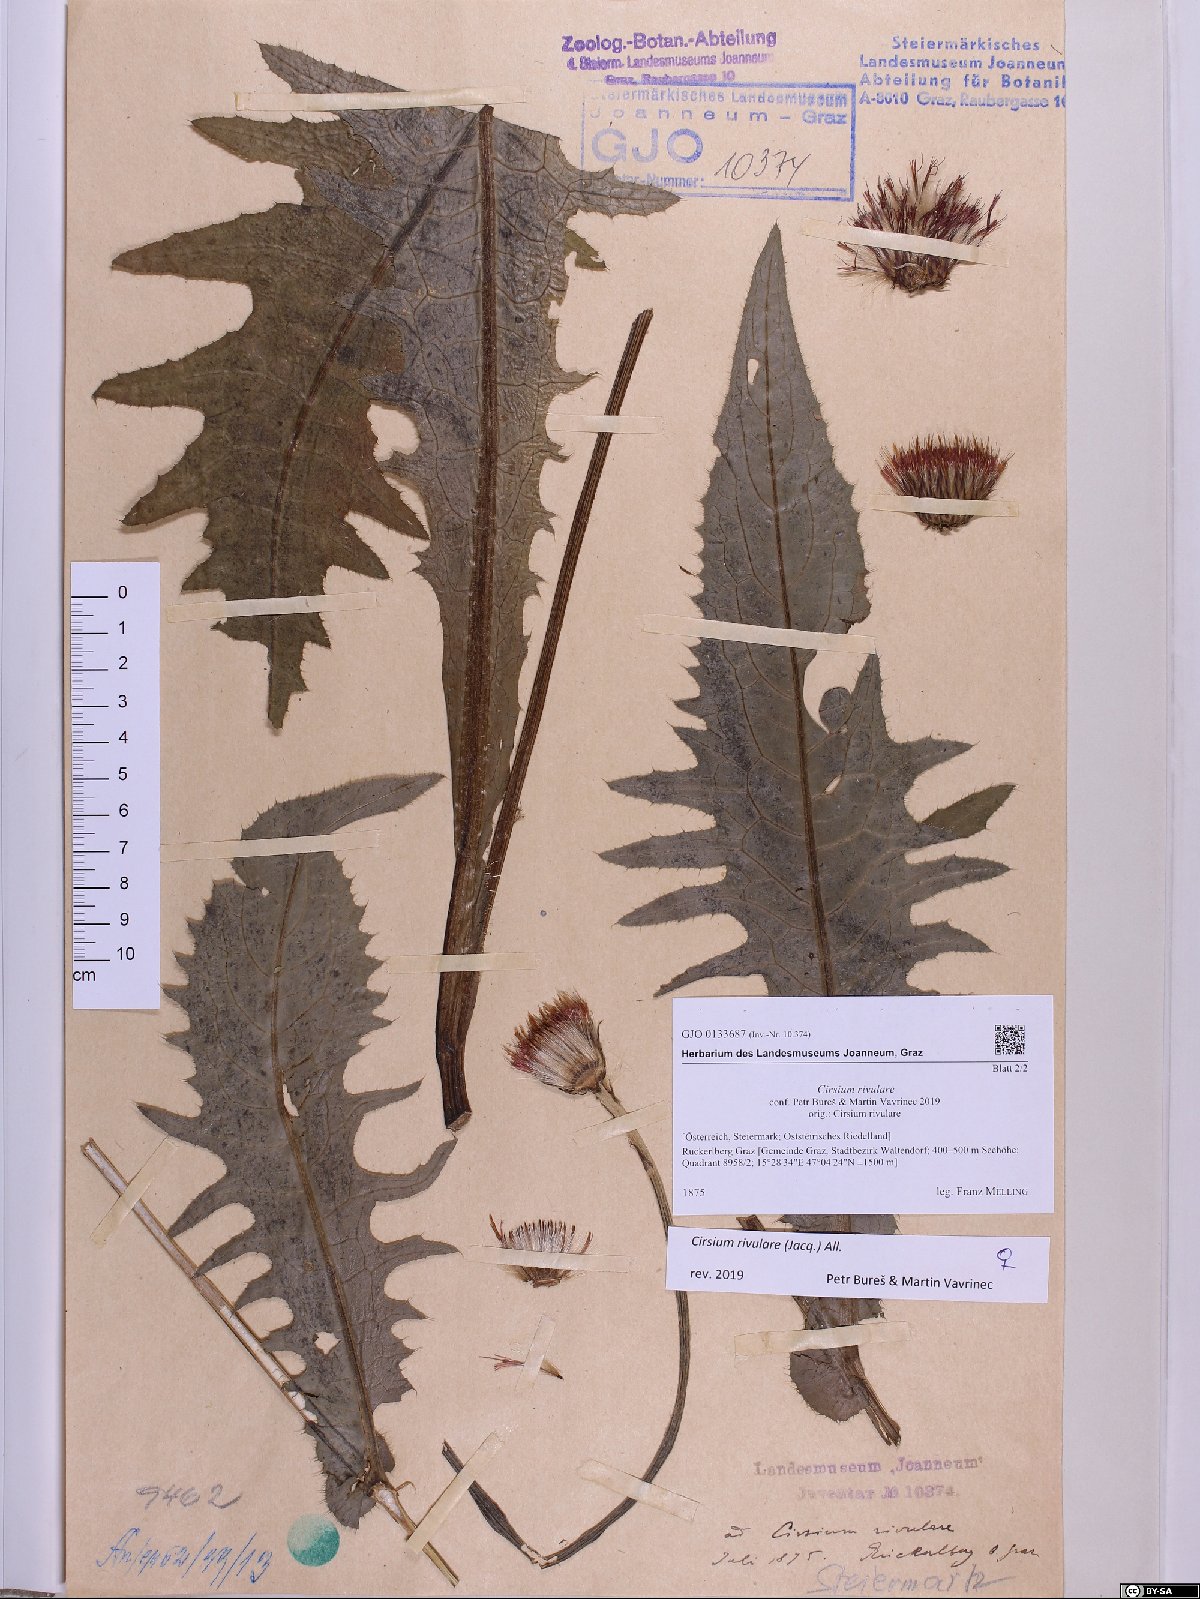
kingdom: Plantae
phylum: Tracheophyta
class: Magnoliopsida
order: Asterales
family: Asteraceae
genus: Cirsium
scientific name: Cirsium rivulare
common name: Brook thistle
